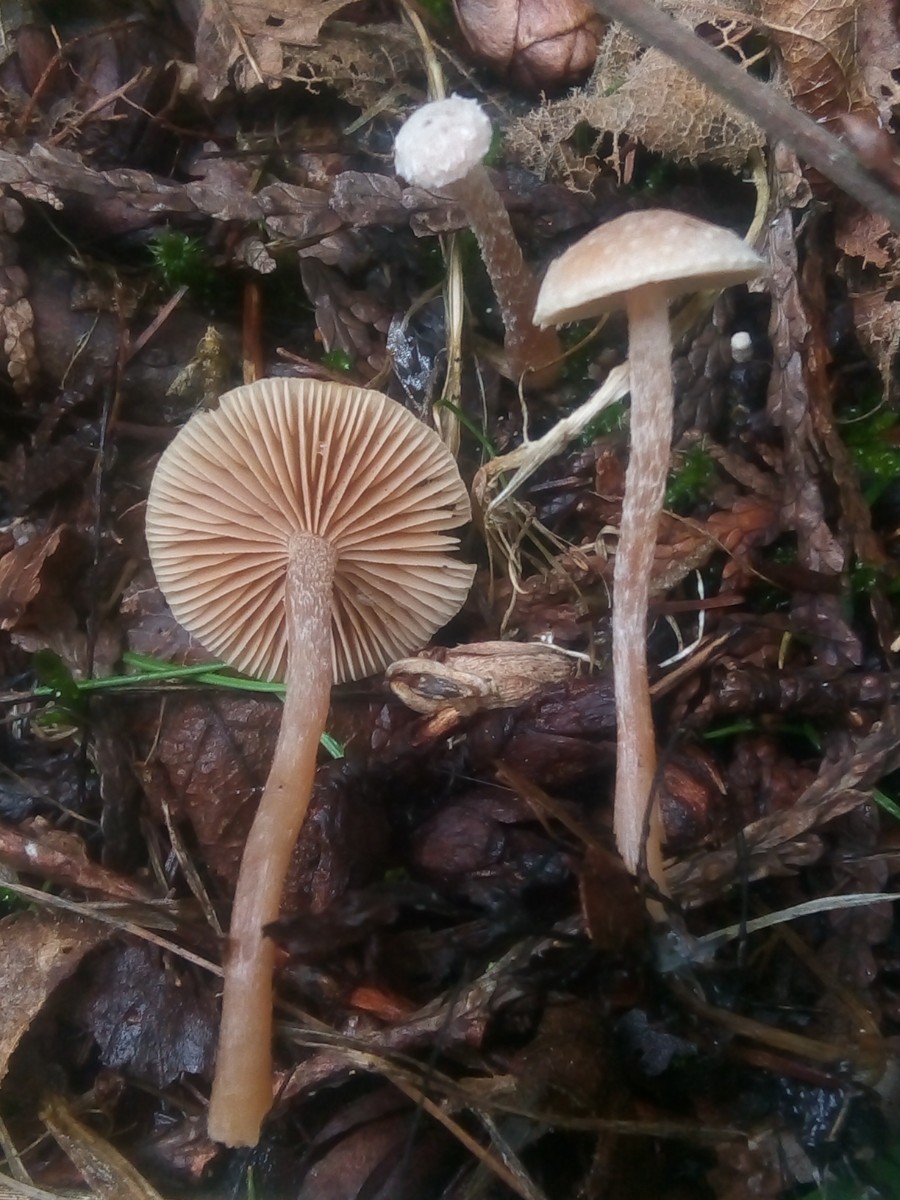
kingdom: Fungi
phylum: Basidiomycota
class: Agaricomycetes
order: Agaricales
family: Tubariaceae
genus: Tubaria
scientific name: Tubaria conspersa
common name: bleg fnughat
